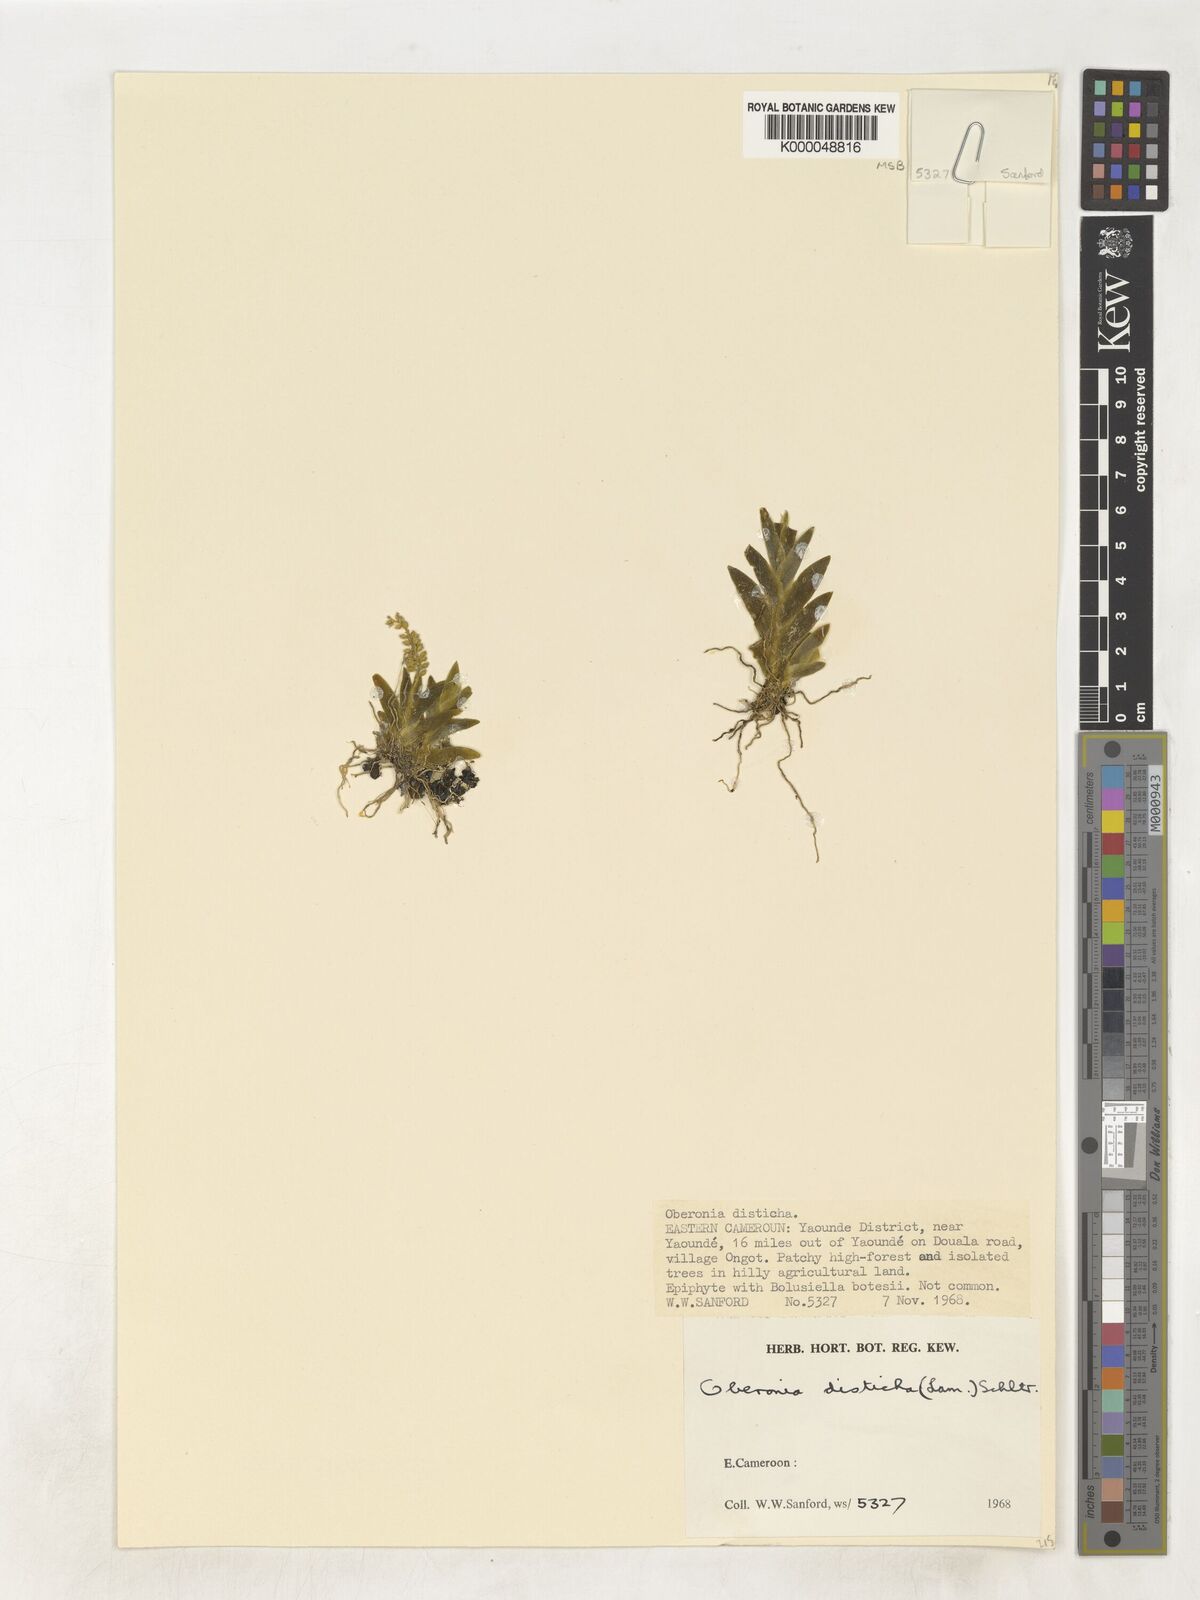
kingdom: Plantae
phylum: Tracheophyta
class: Liliopsida
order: Asparagales
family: Orchidaceae
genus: Oberonia
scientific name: Oberonia disticha
